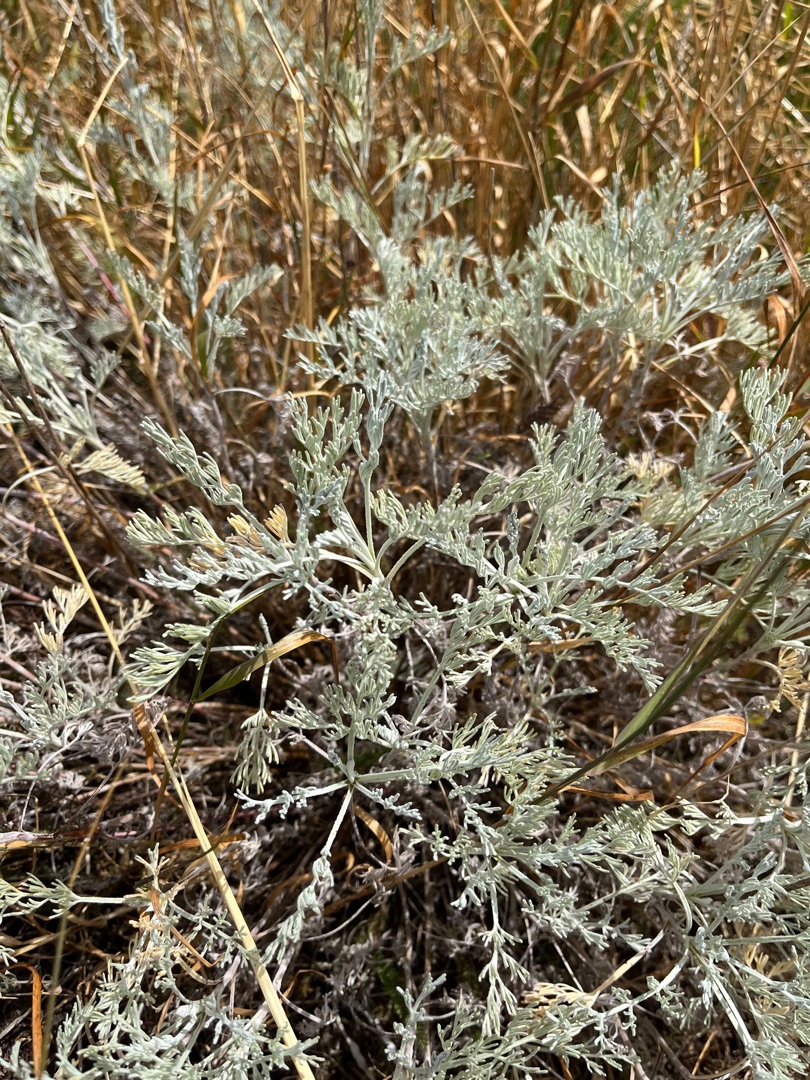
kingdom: Plantae
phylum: Tracheophyta
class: Magnoliopsida
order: Asterales
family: Asteraceae
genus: Artemisia
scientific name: Artemisia maritima
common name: Strandmalurt
